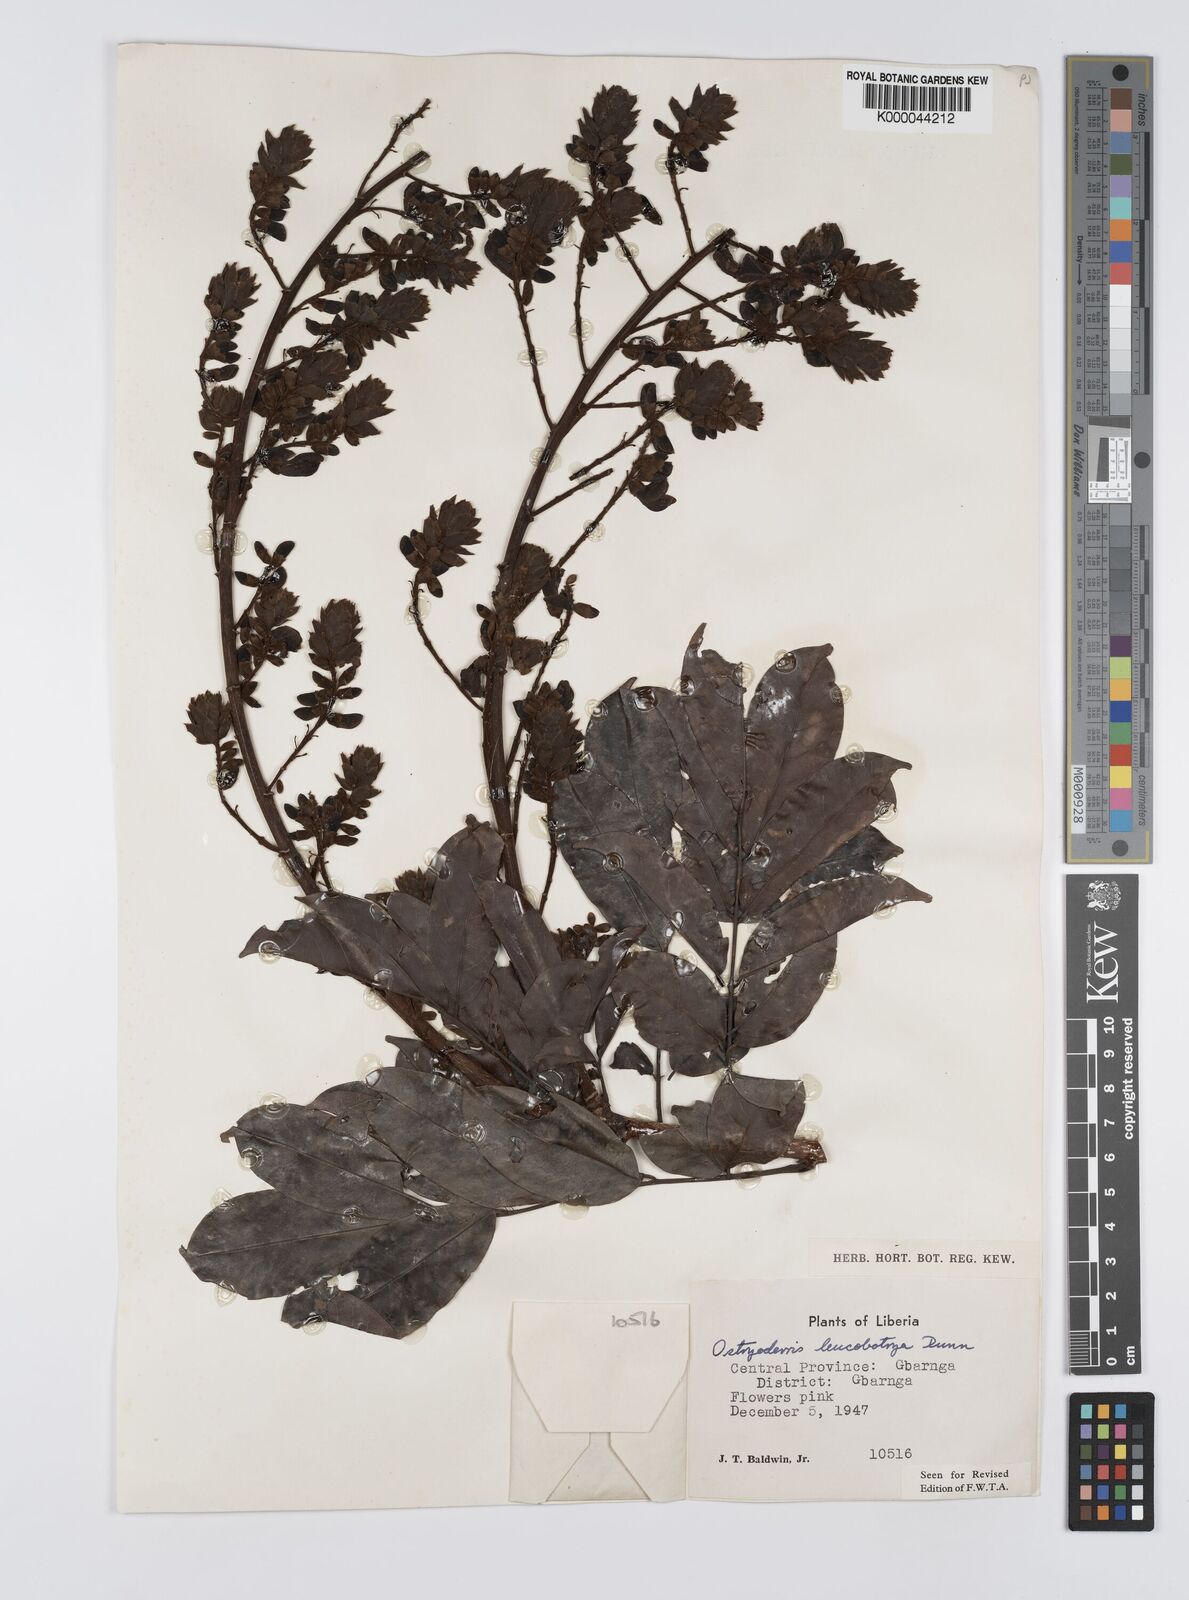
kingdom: Plantae
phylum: Tracheophyta
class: Magnoliopsida
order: Fabales
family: Fabaceae
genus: Aganope
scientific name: Aganope leucobotrya
